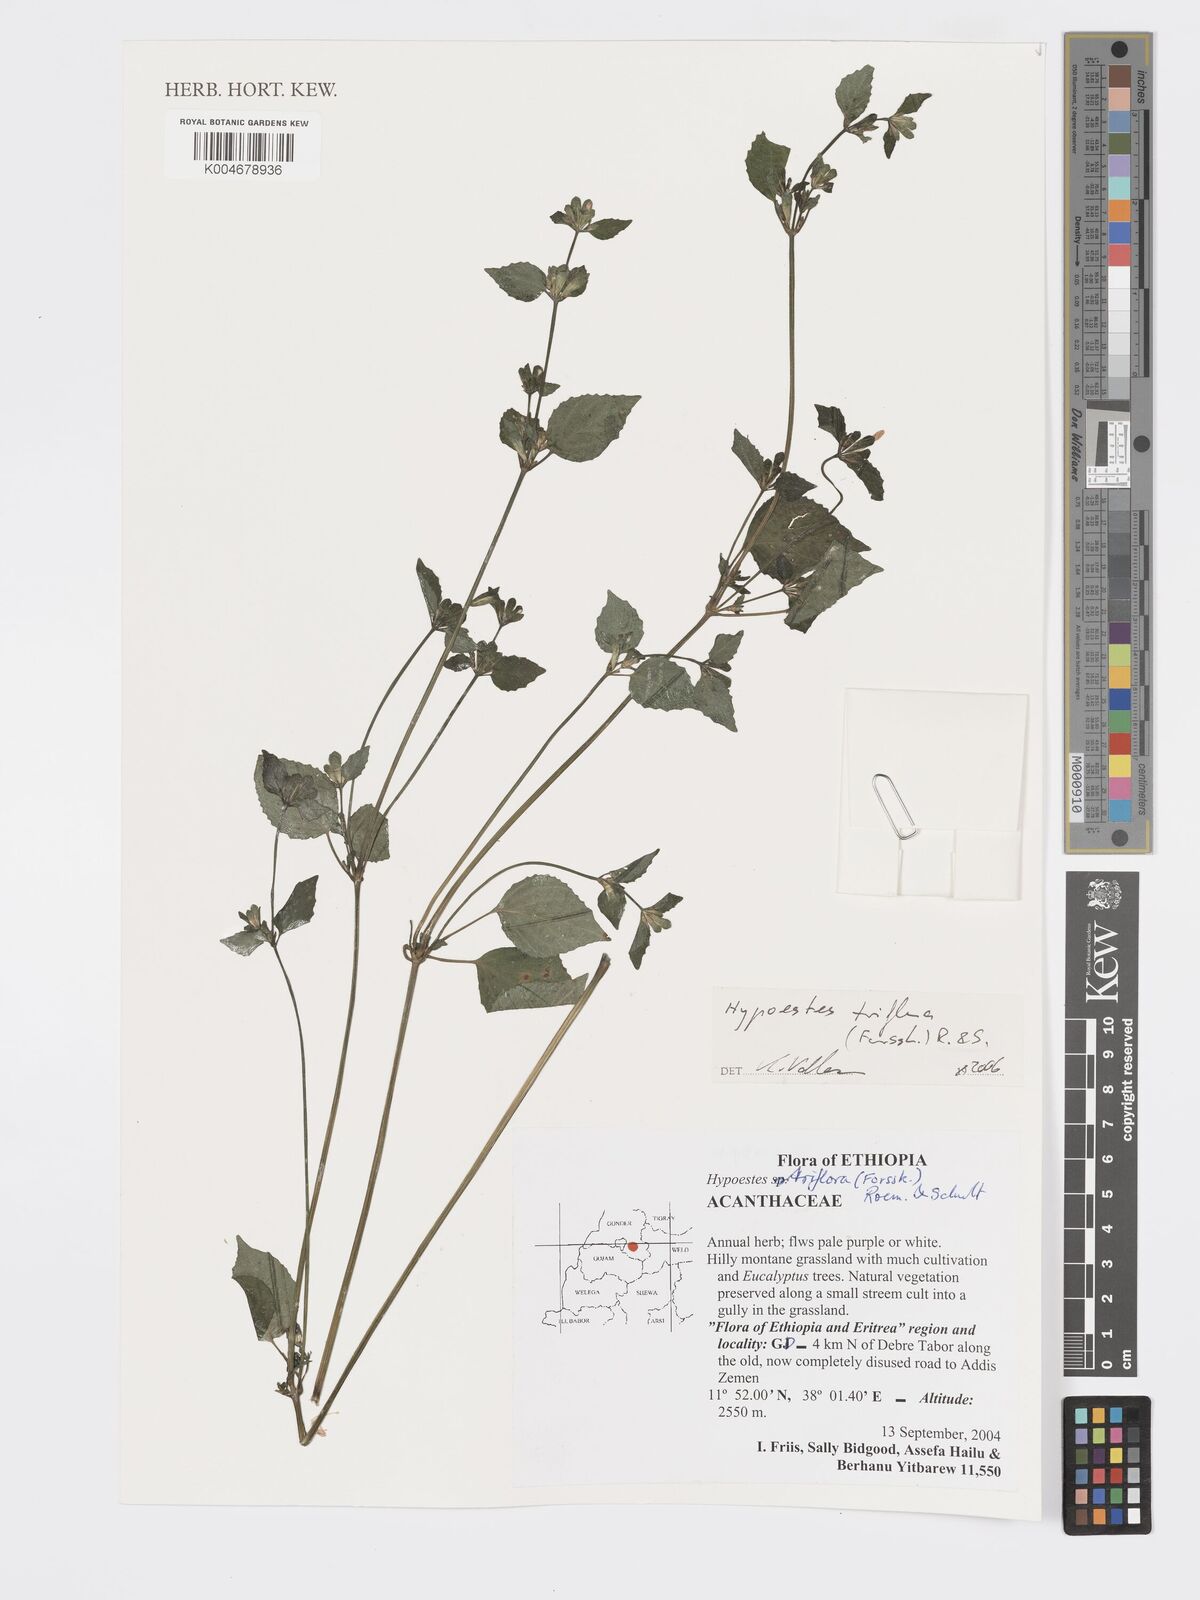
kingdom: Plantae
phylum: Tracheophyta
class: Magnoliopsida
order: Lamiales
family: Acanthaceae
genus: Hypoestes
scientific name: Hypoestes triflora
